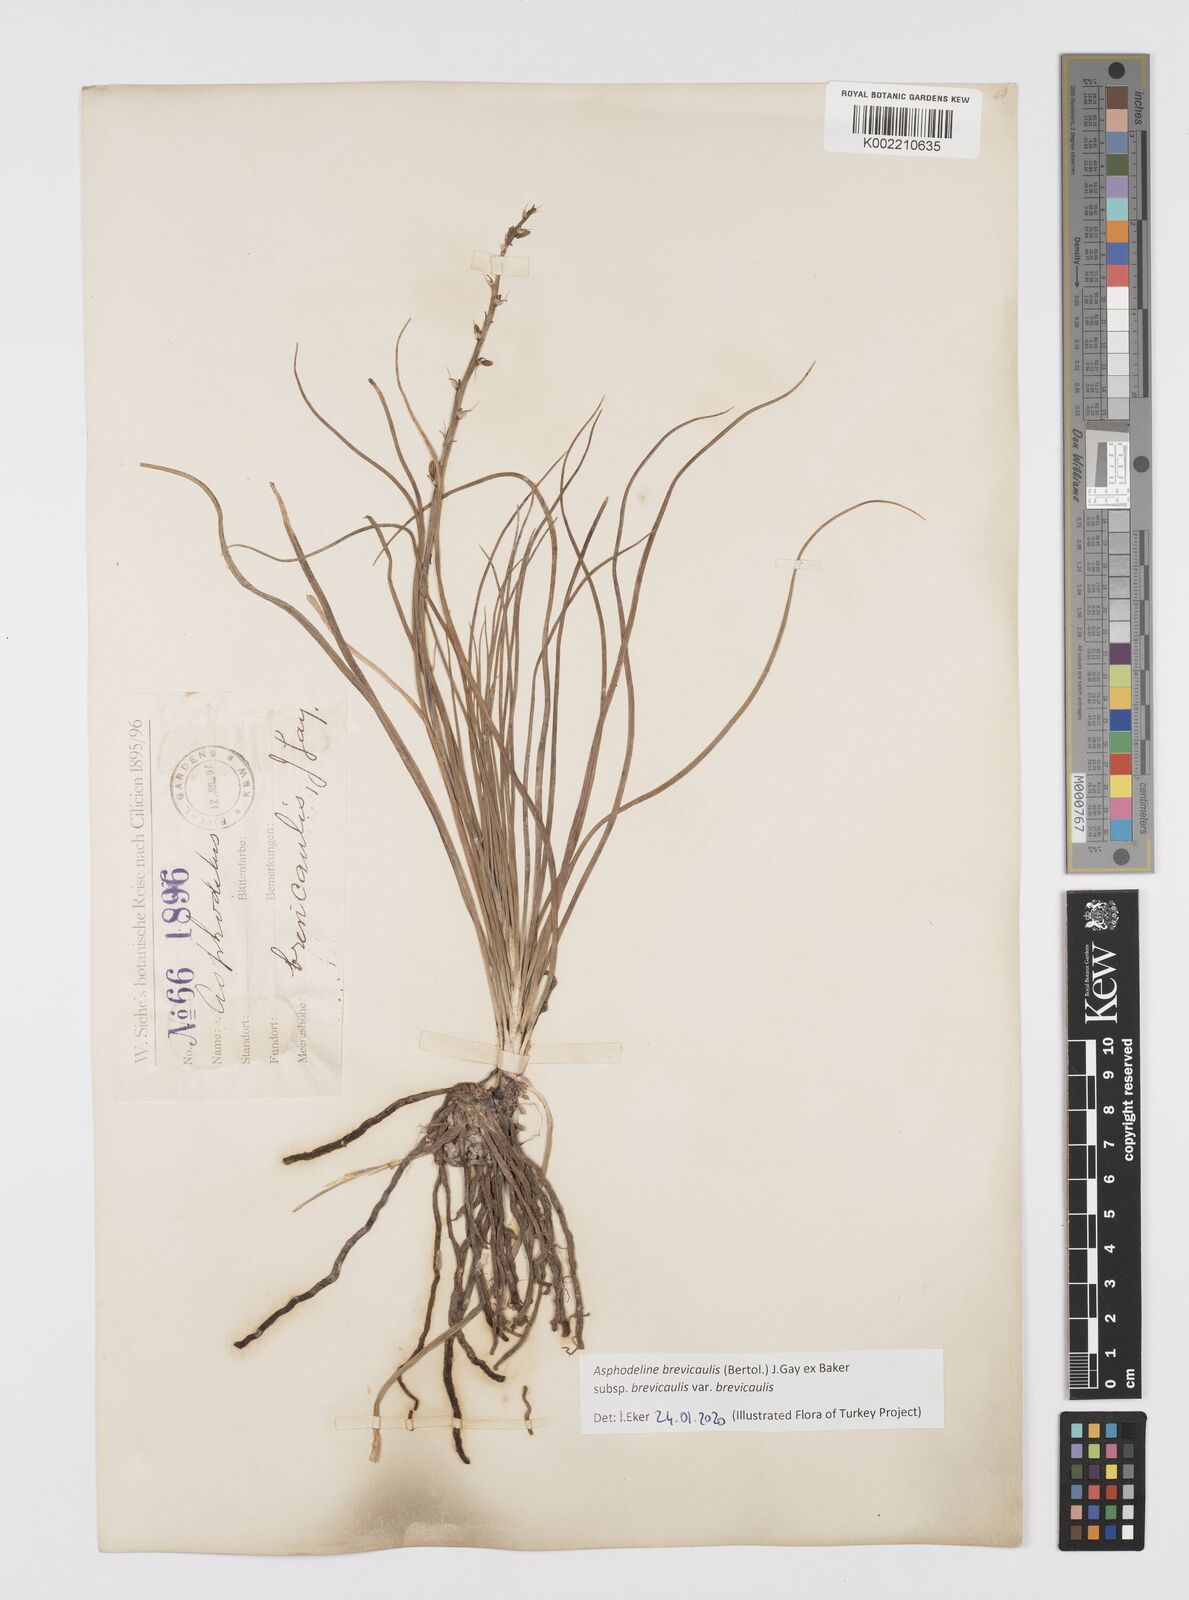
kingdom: Plantae
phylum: Tracheophyta
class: Liliopsida
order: Asparagales
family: Asphodelaceae
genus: Asphodeline
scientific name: Asphodeline brevicaulis
